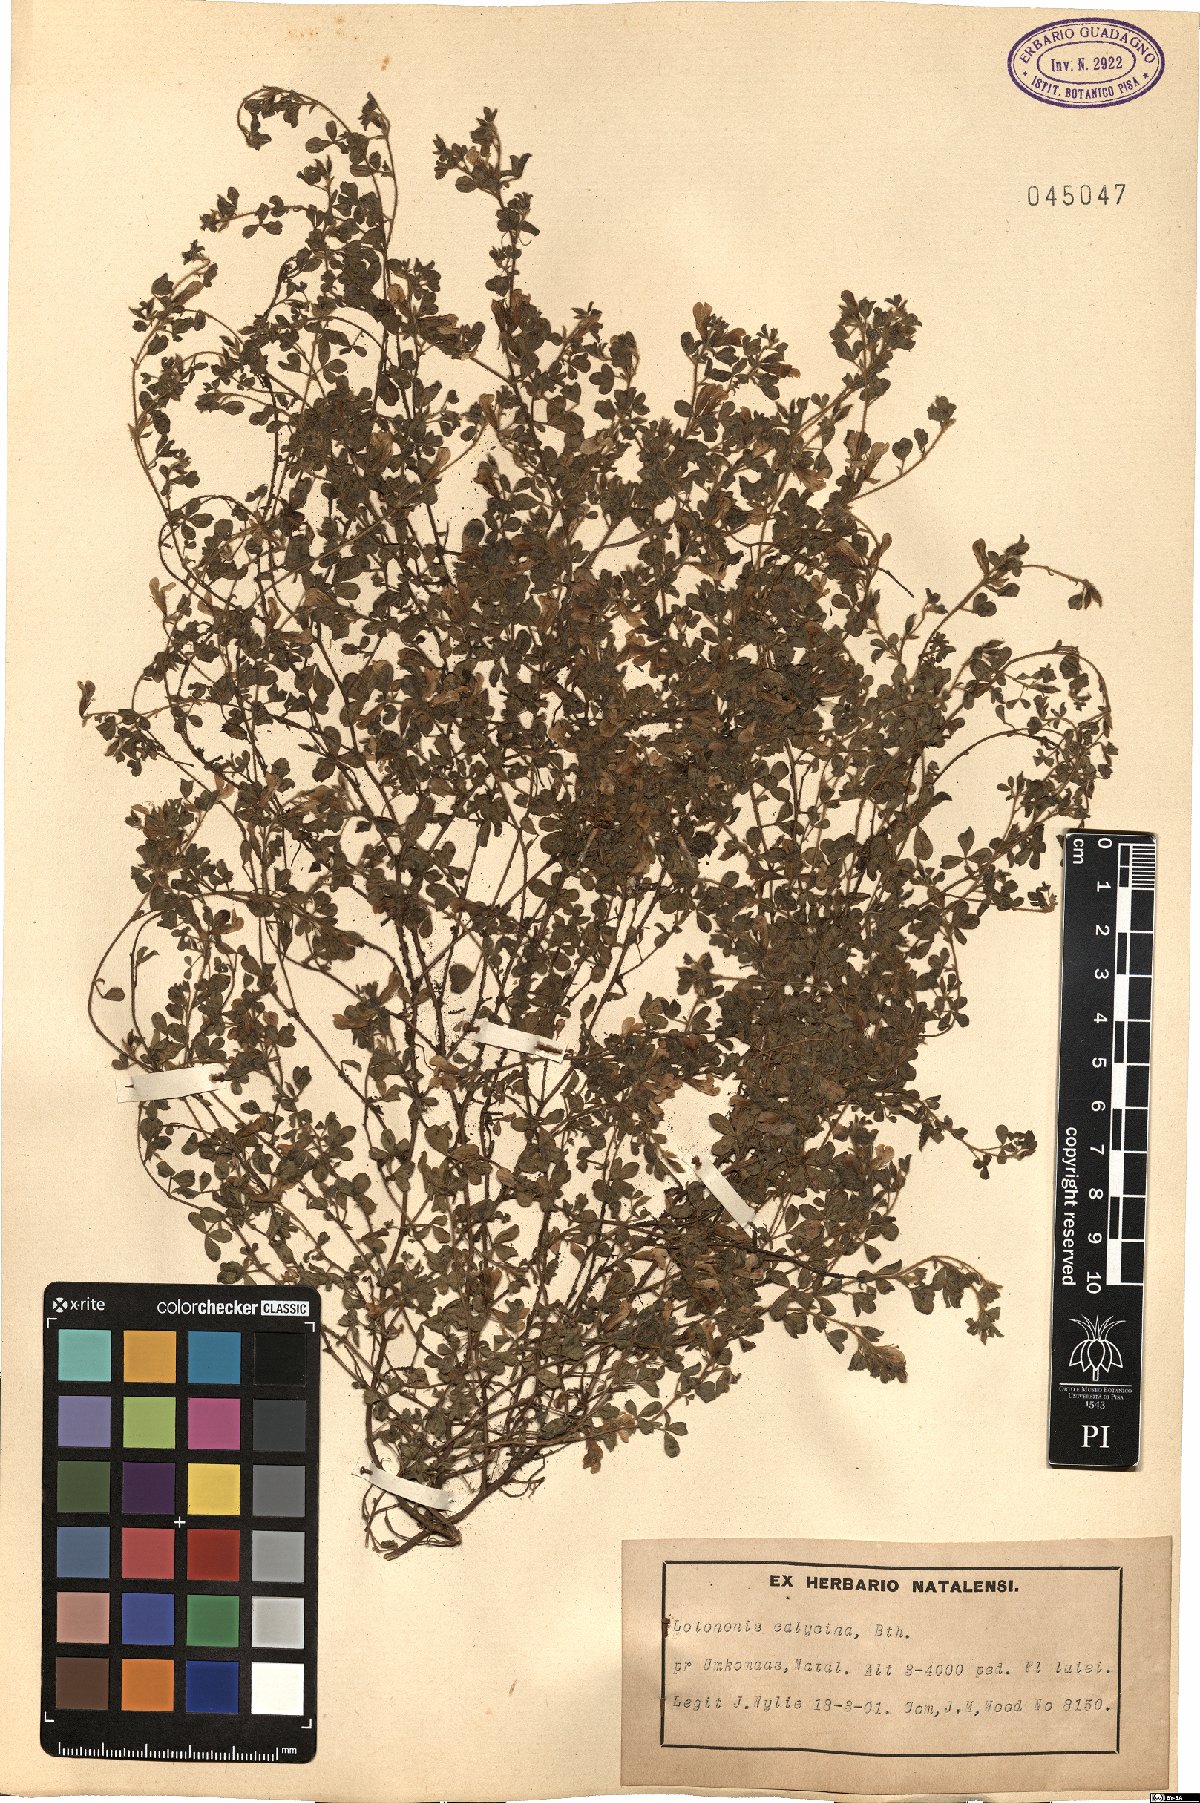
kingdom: Plantae
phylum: Tracheophyta
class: Magnoliopsida
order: Fabales
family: Fabaceae
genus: Leobordea
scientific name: Leobordea divaricata
